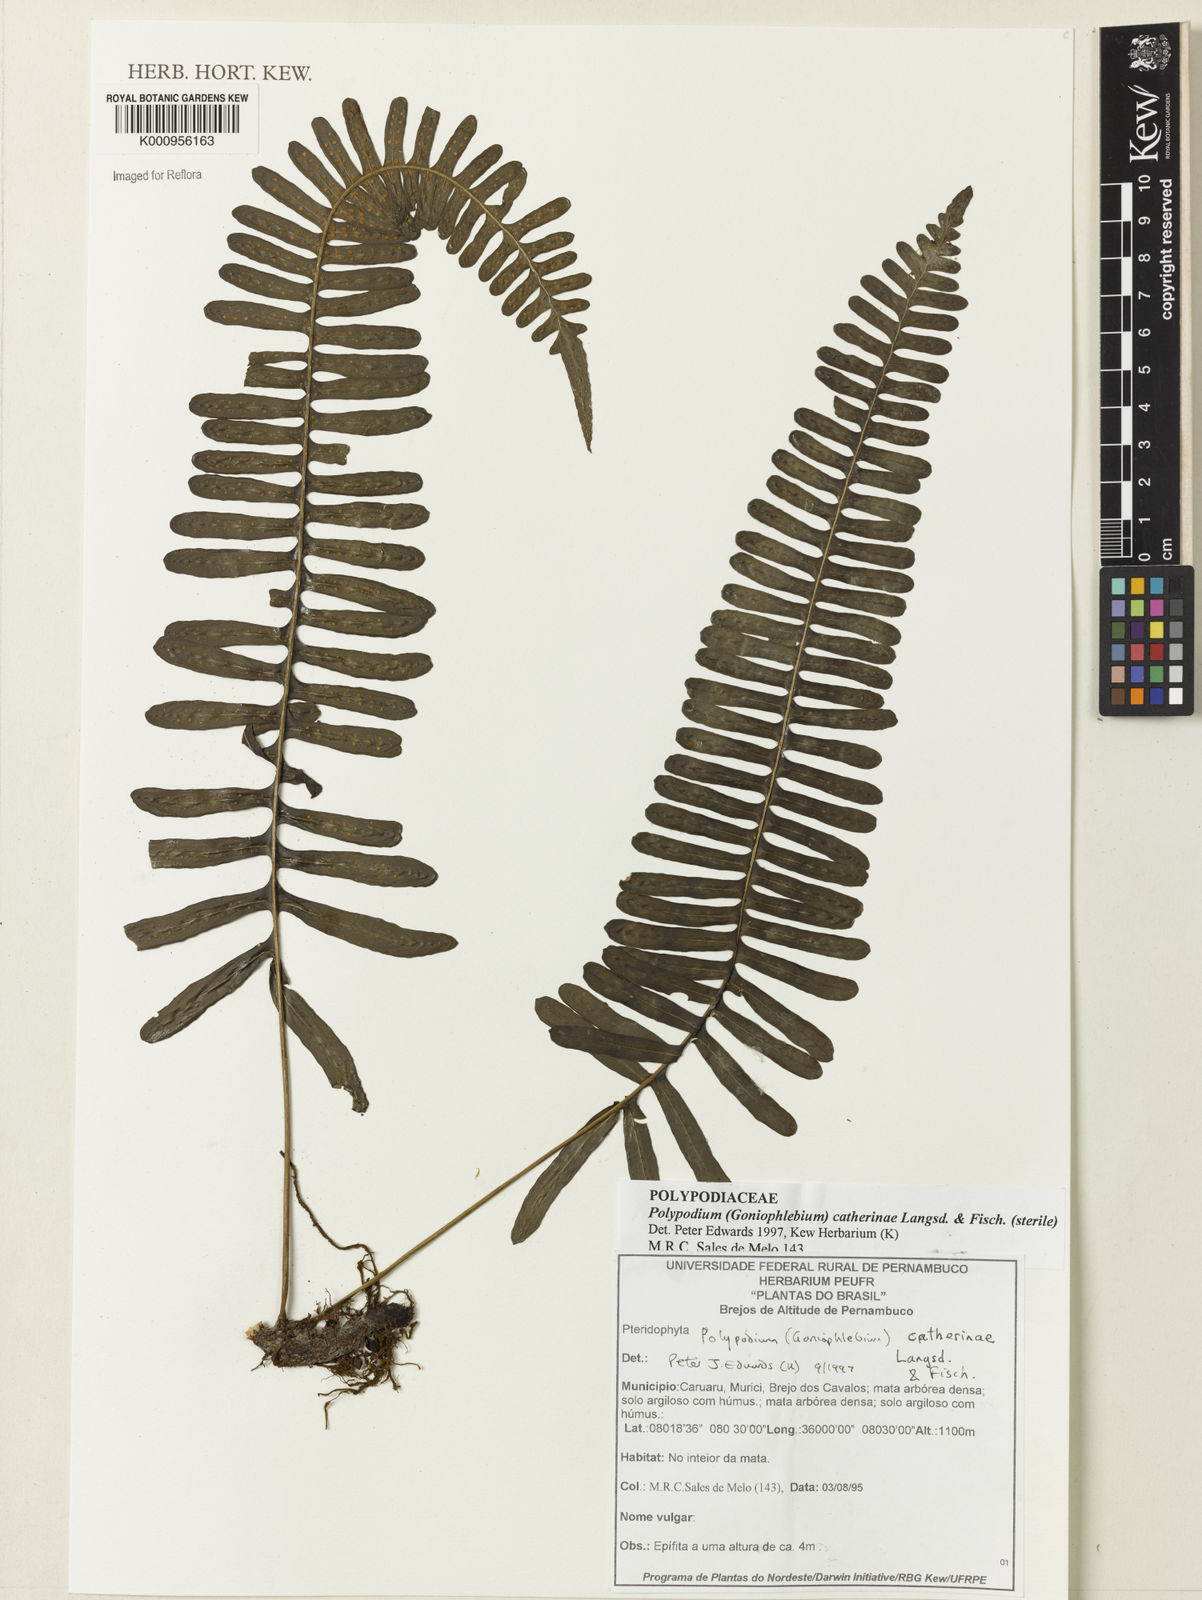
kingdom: Plantae
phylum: Tracheophyta
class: Polypodiopsida
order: Polypodiales
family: Polypodiaceae
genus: Serpocaulon
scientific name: Serpocaulon catharinae
